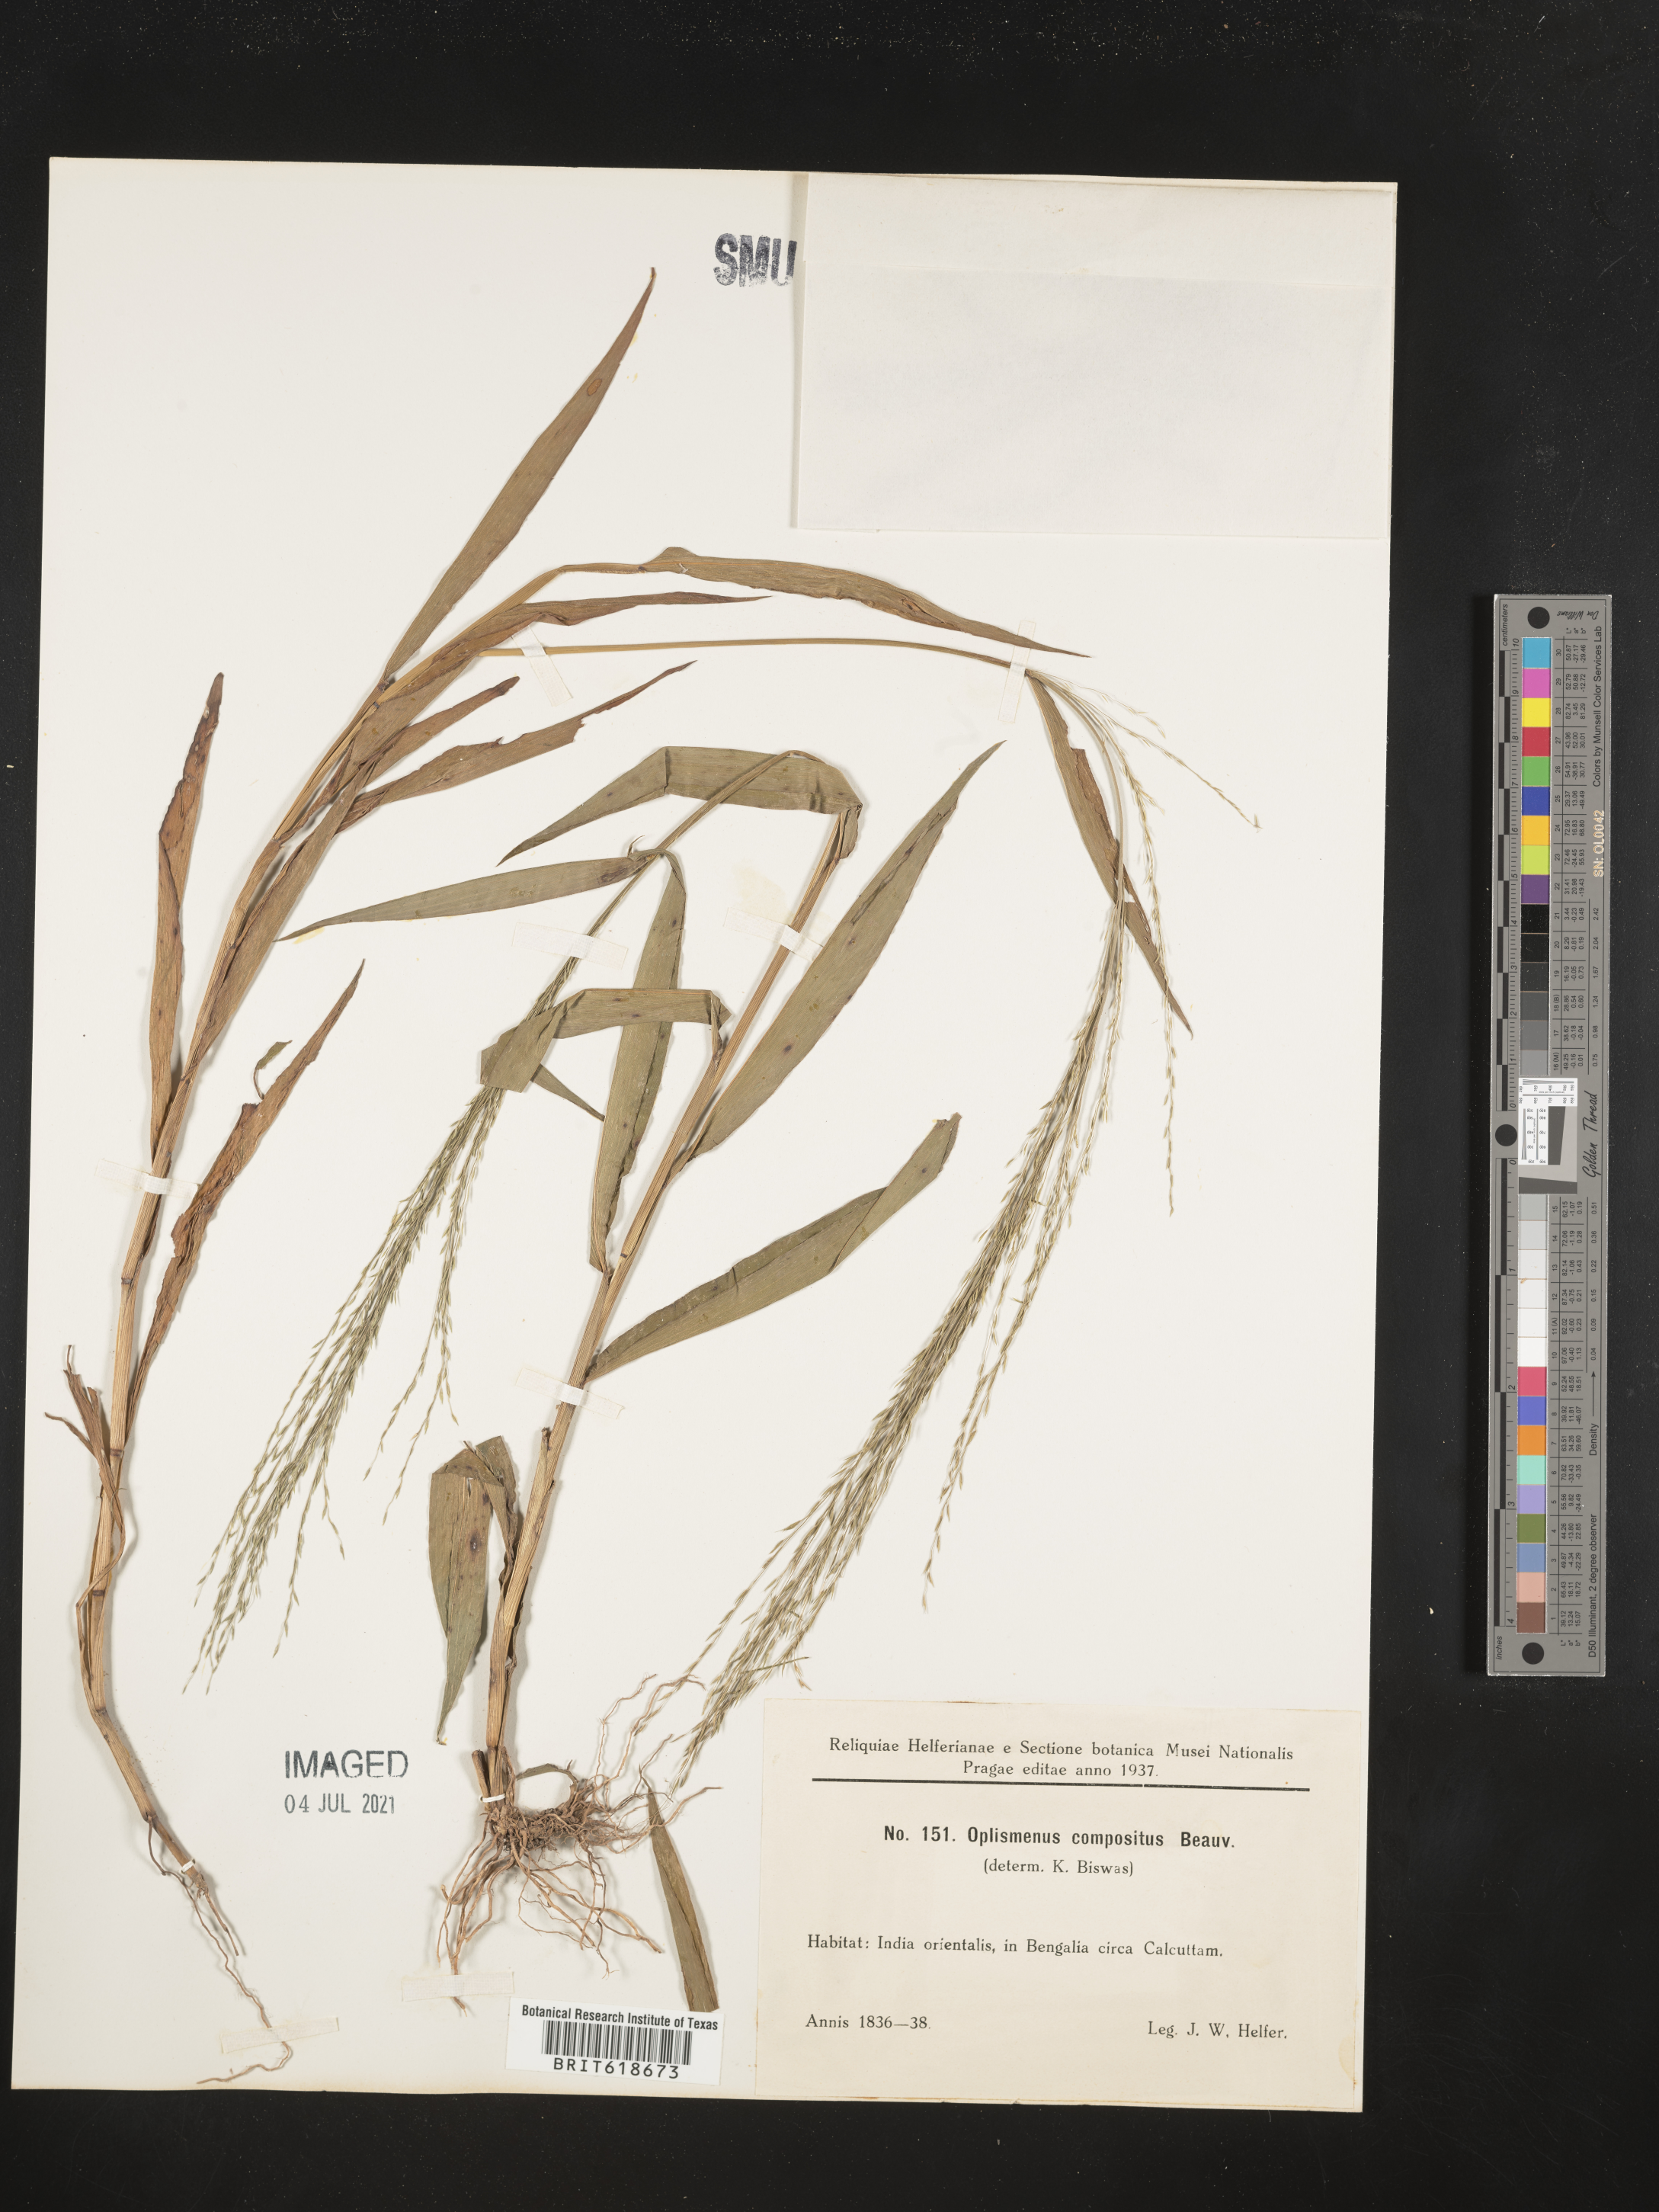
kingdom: Plantae
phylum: Tracheophyta
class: Liliopsida
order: Poales
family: Poaceae
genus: Oplismenus
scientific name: Oplismenus compositus
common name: Running mountain grass
